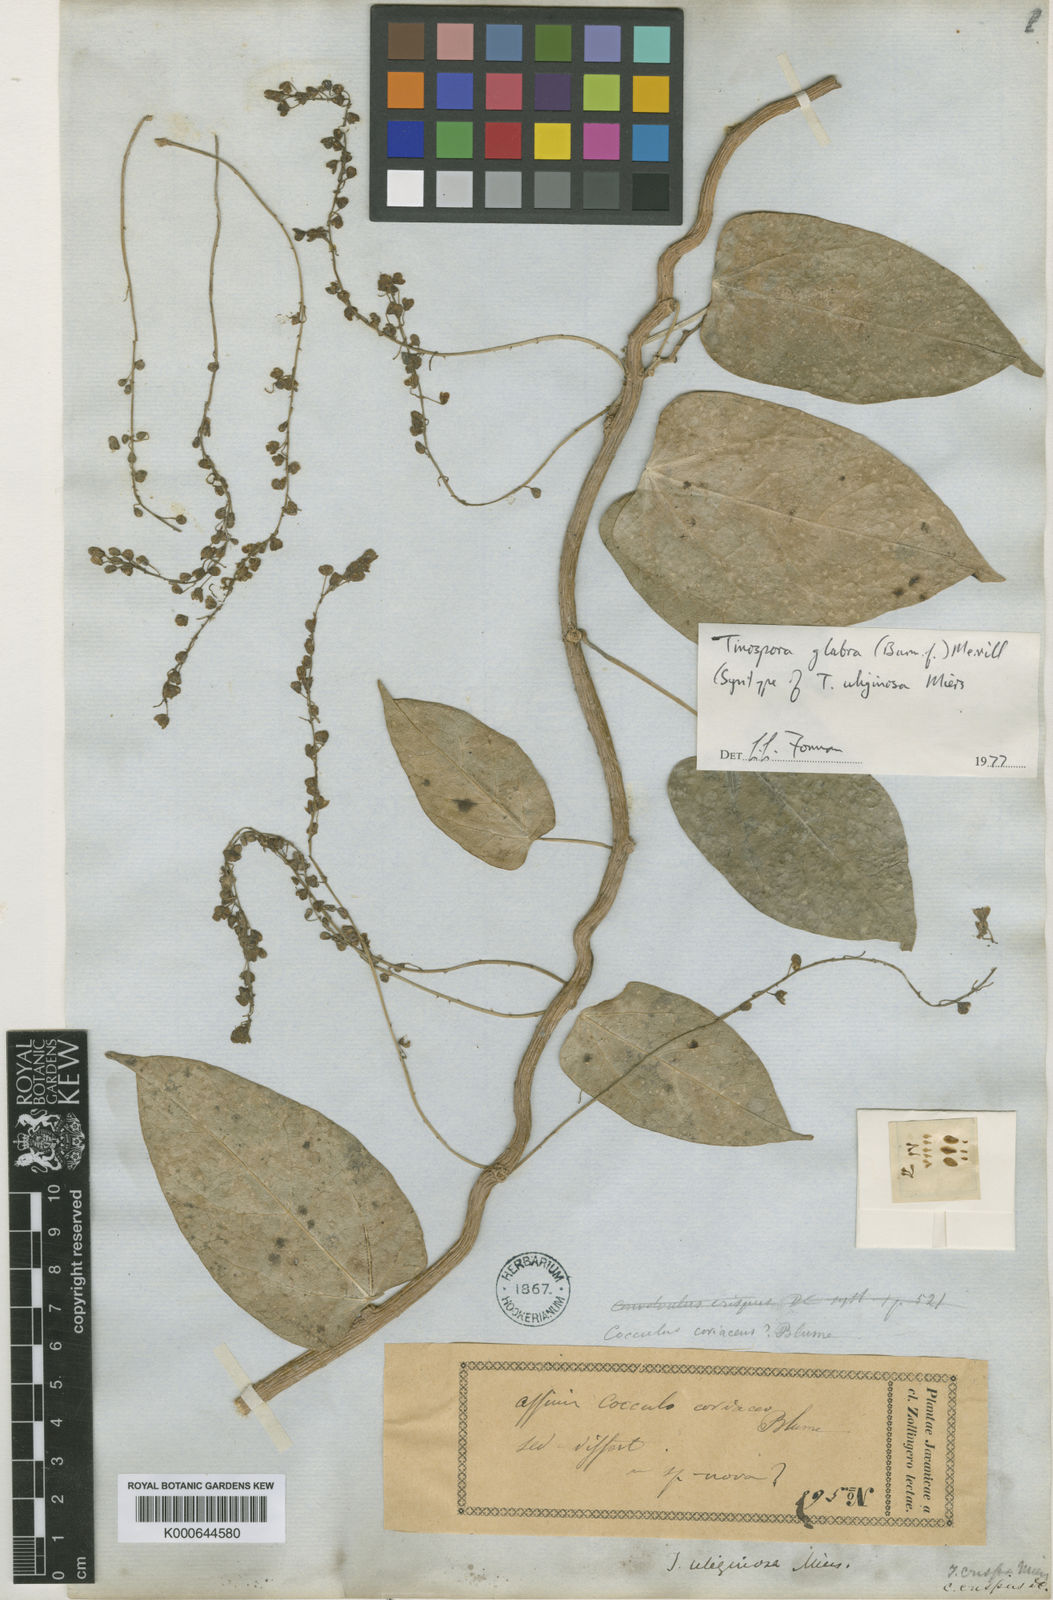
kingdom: Plantae
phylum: Tracheophyta
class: Magnoliopsida
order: Ranunculales
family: Menispermaceae
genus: Tinospora
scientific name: Tinospora glabra
